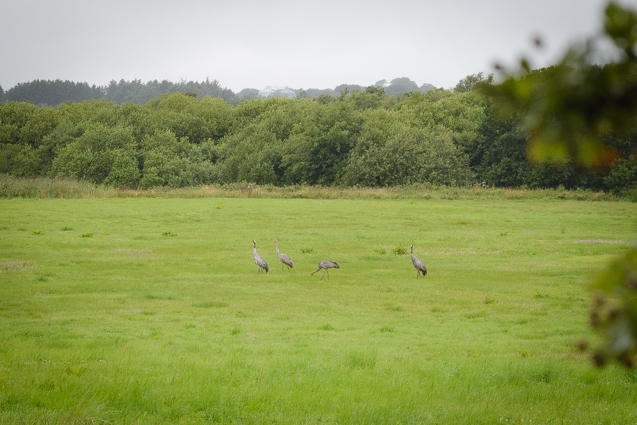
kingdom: Animalia
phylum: Chordata
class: Aves
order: Gruiformes
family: Gruidae
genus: Grus
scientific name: Grus grus
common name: Trane
